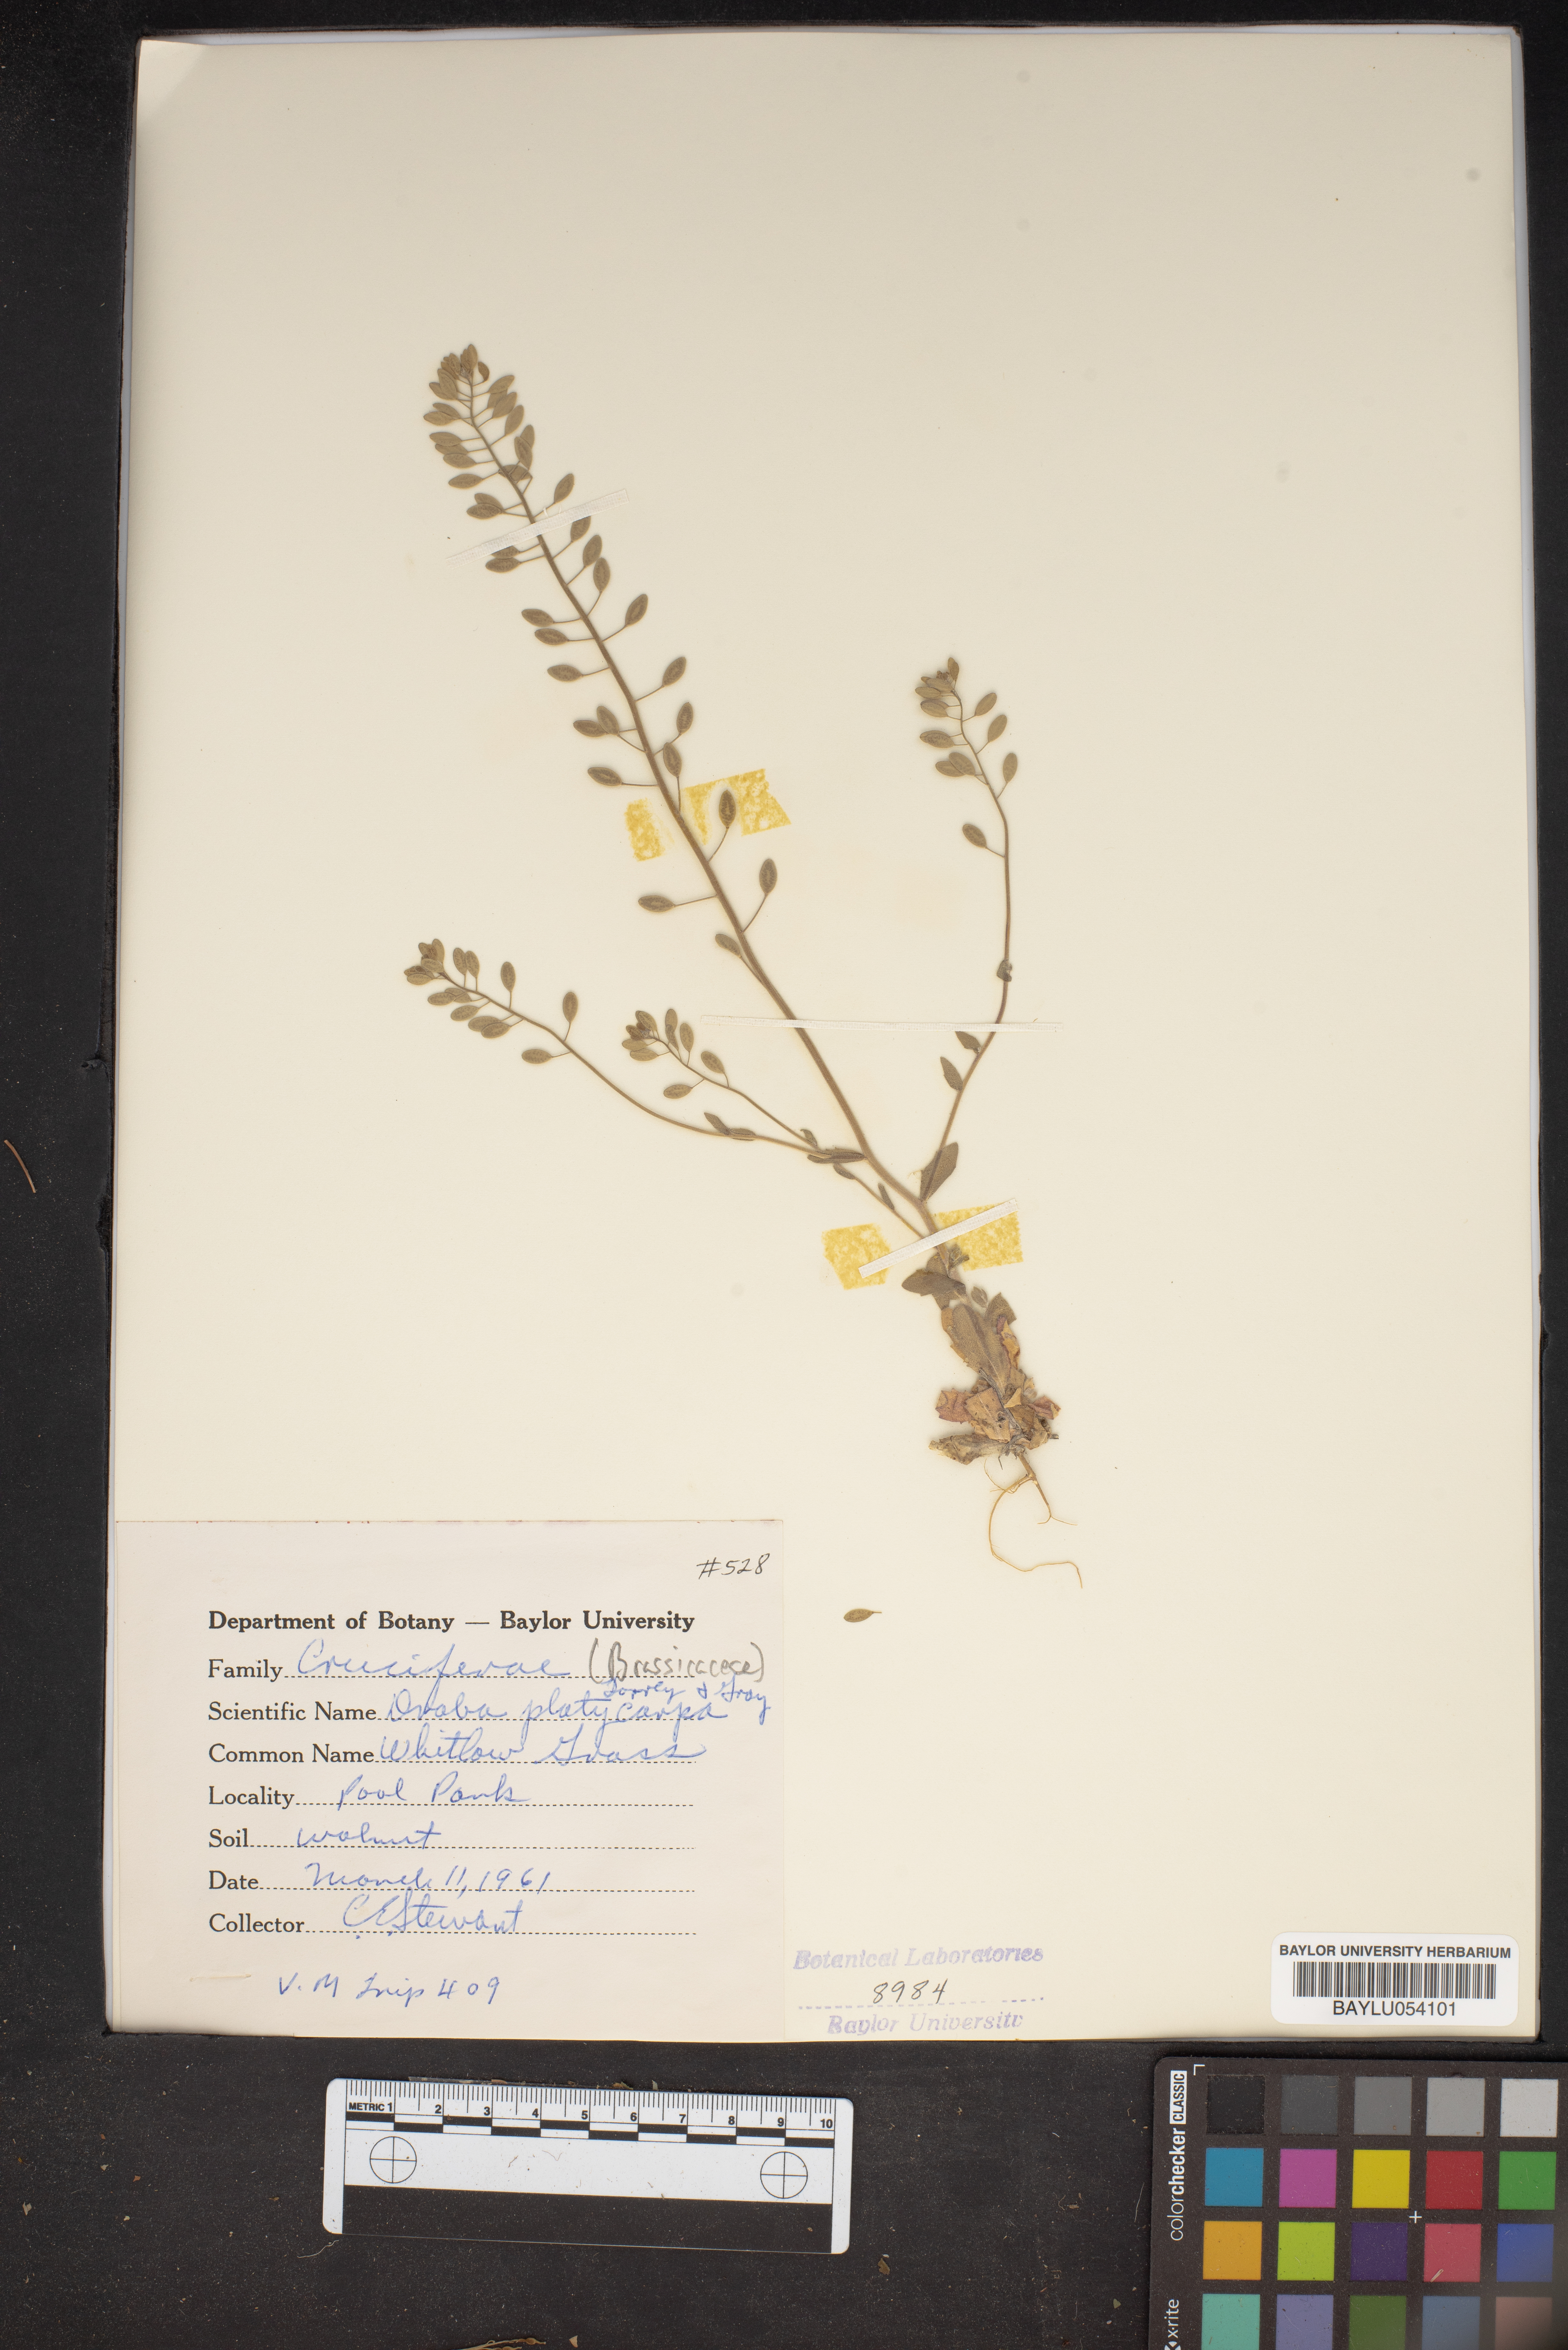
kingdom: Plantae
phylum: Tracheophyta
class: Magnoliopsida
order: Brassicales
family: Brassicaceae
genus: Tomostima
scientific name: Tomostima platycarpa
